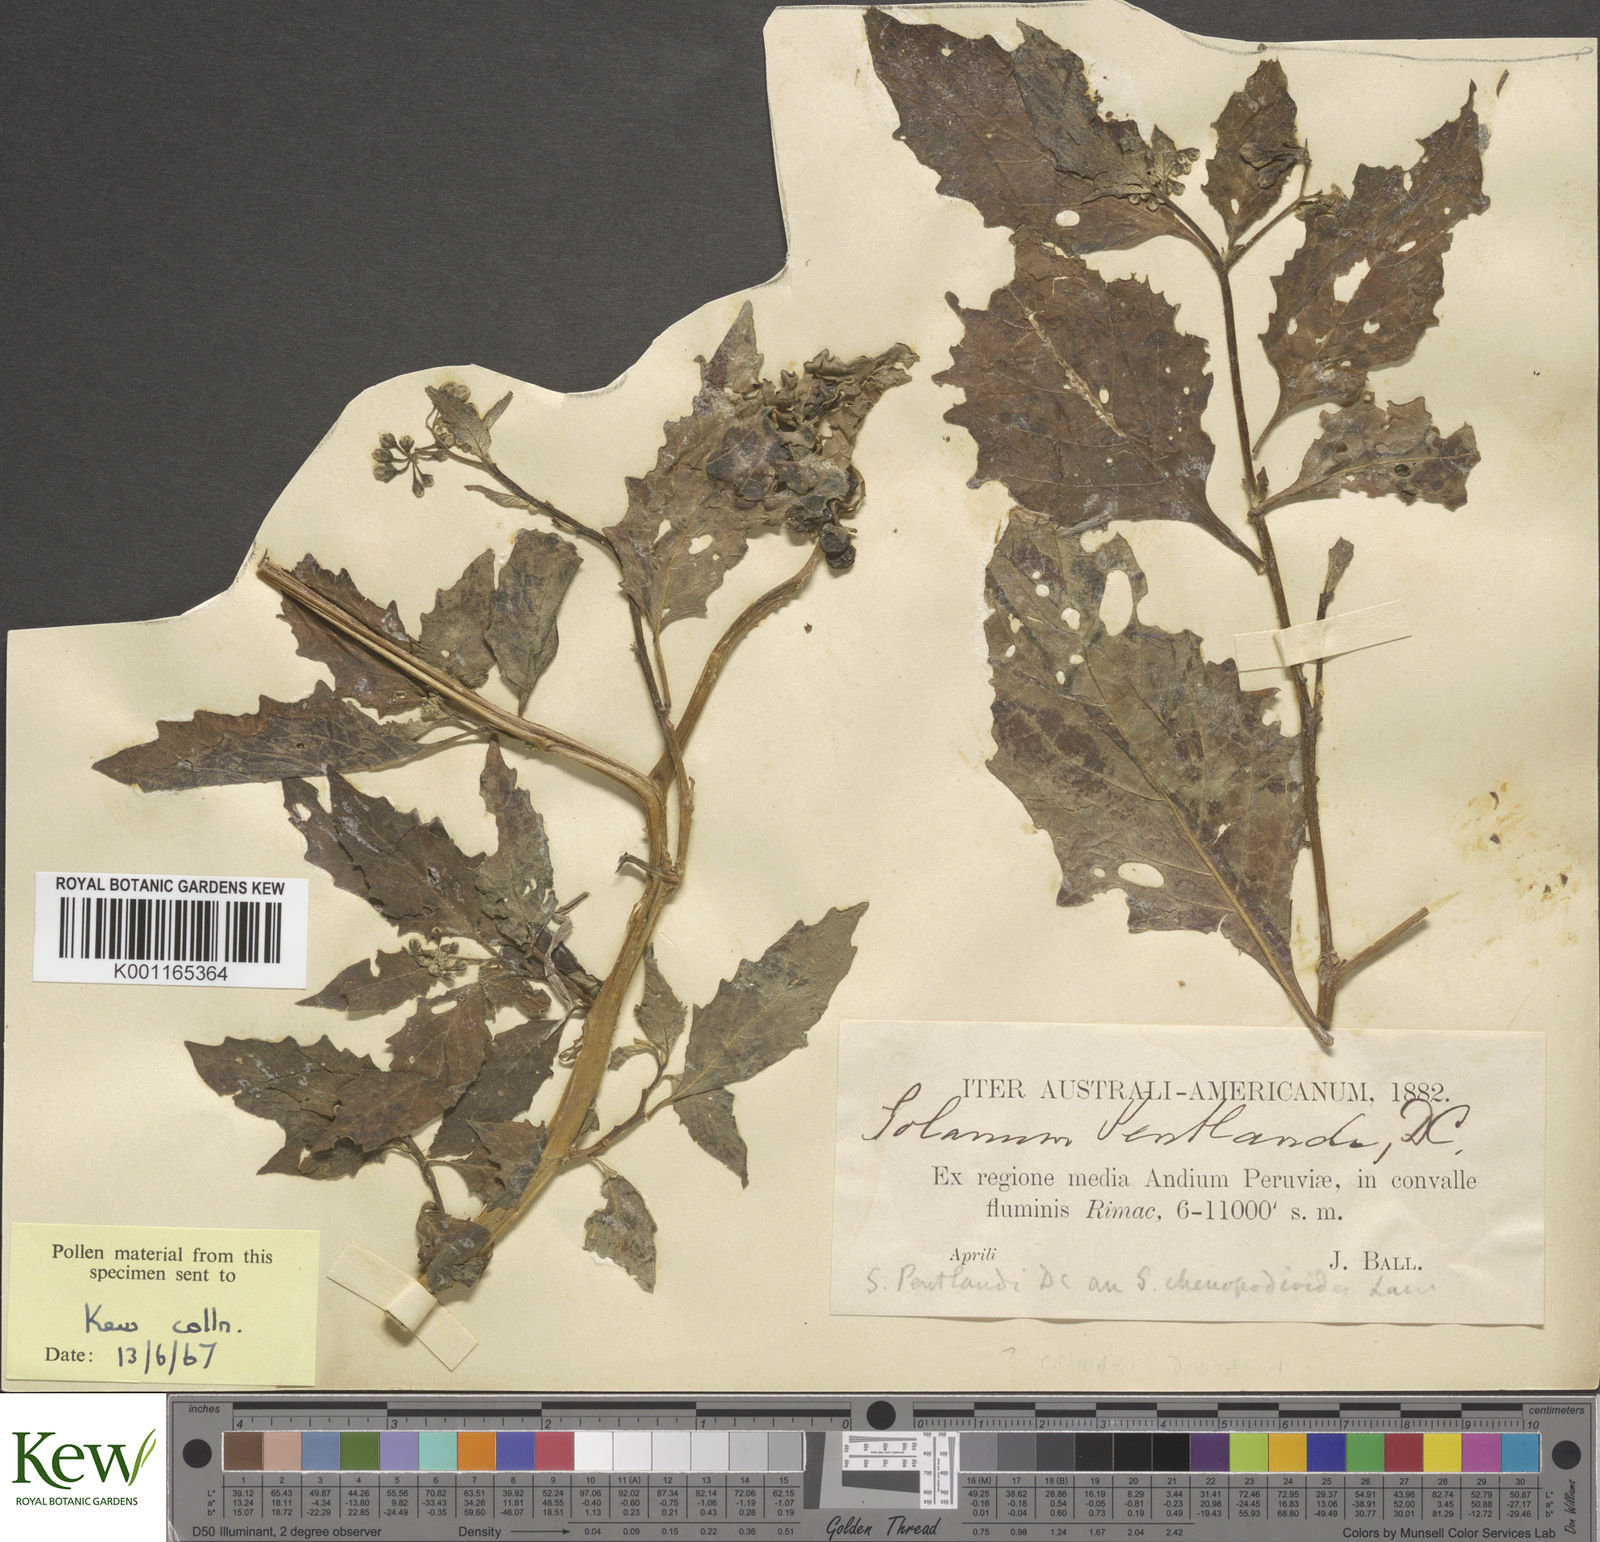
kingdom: Plantae
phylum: Tracheophyta
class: Magnoliopsida
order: Solanales
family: Solanaceae
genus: Solanum
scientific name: Solanum pentlandii
